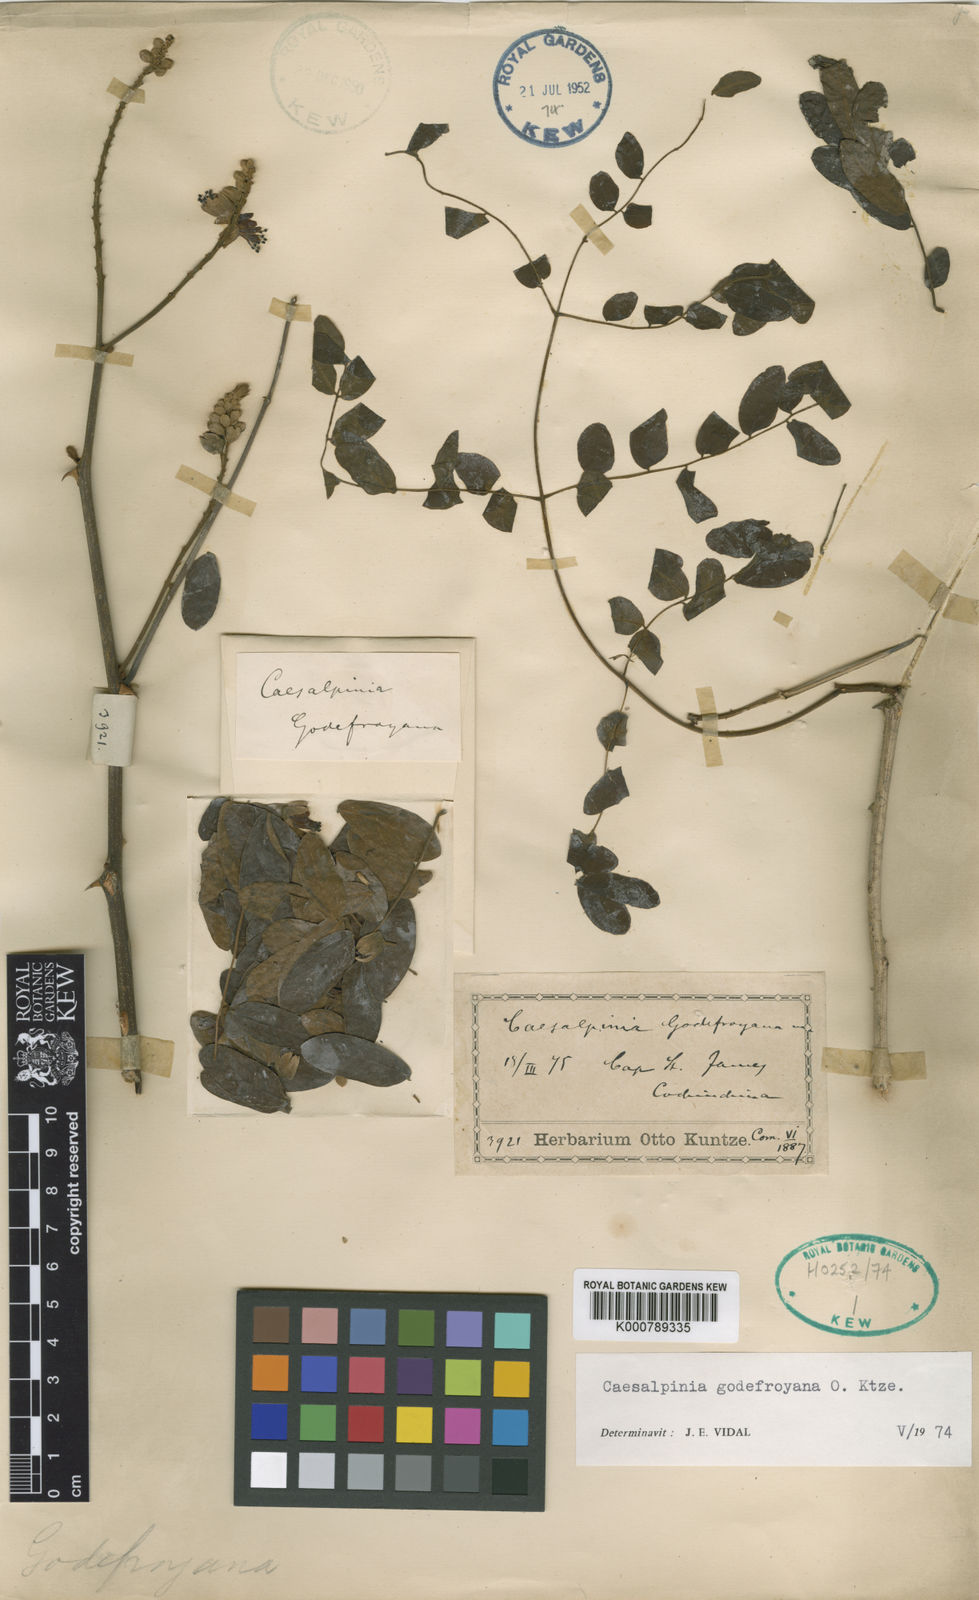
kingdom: Plantae
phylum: Tracheophyta
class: Magnoliopsida
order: Fabales
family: Fabaceae
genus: Biancaea
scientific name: Biancaea godefroyana
